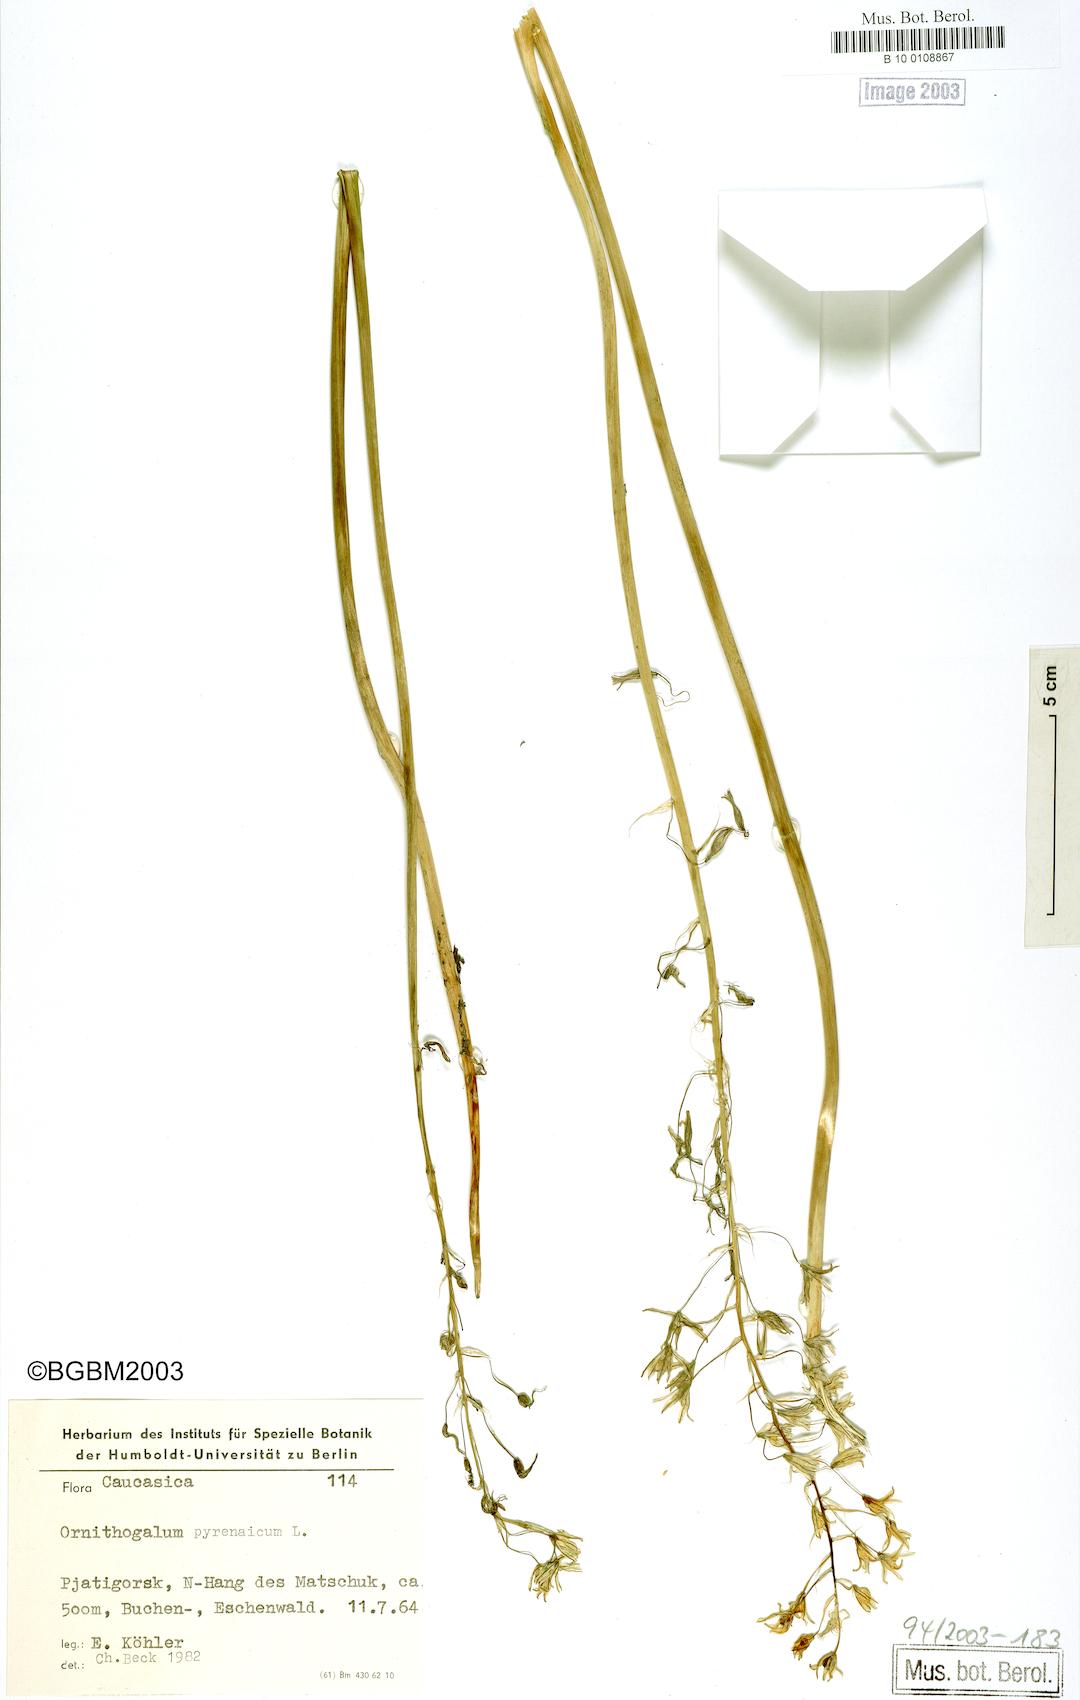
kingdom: Plantae
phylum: Tracheophyta
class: Liliopsida
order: Asparagales
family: Asparagaceae
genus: Ornithogalum
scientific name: Ornithogalum pyrenaicum
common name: Spiked star-of-bethlehem
